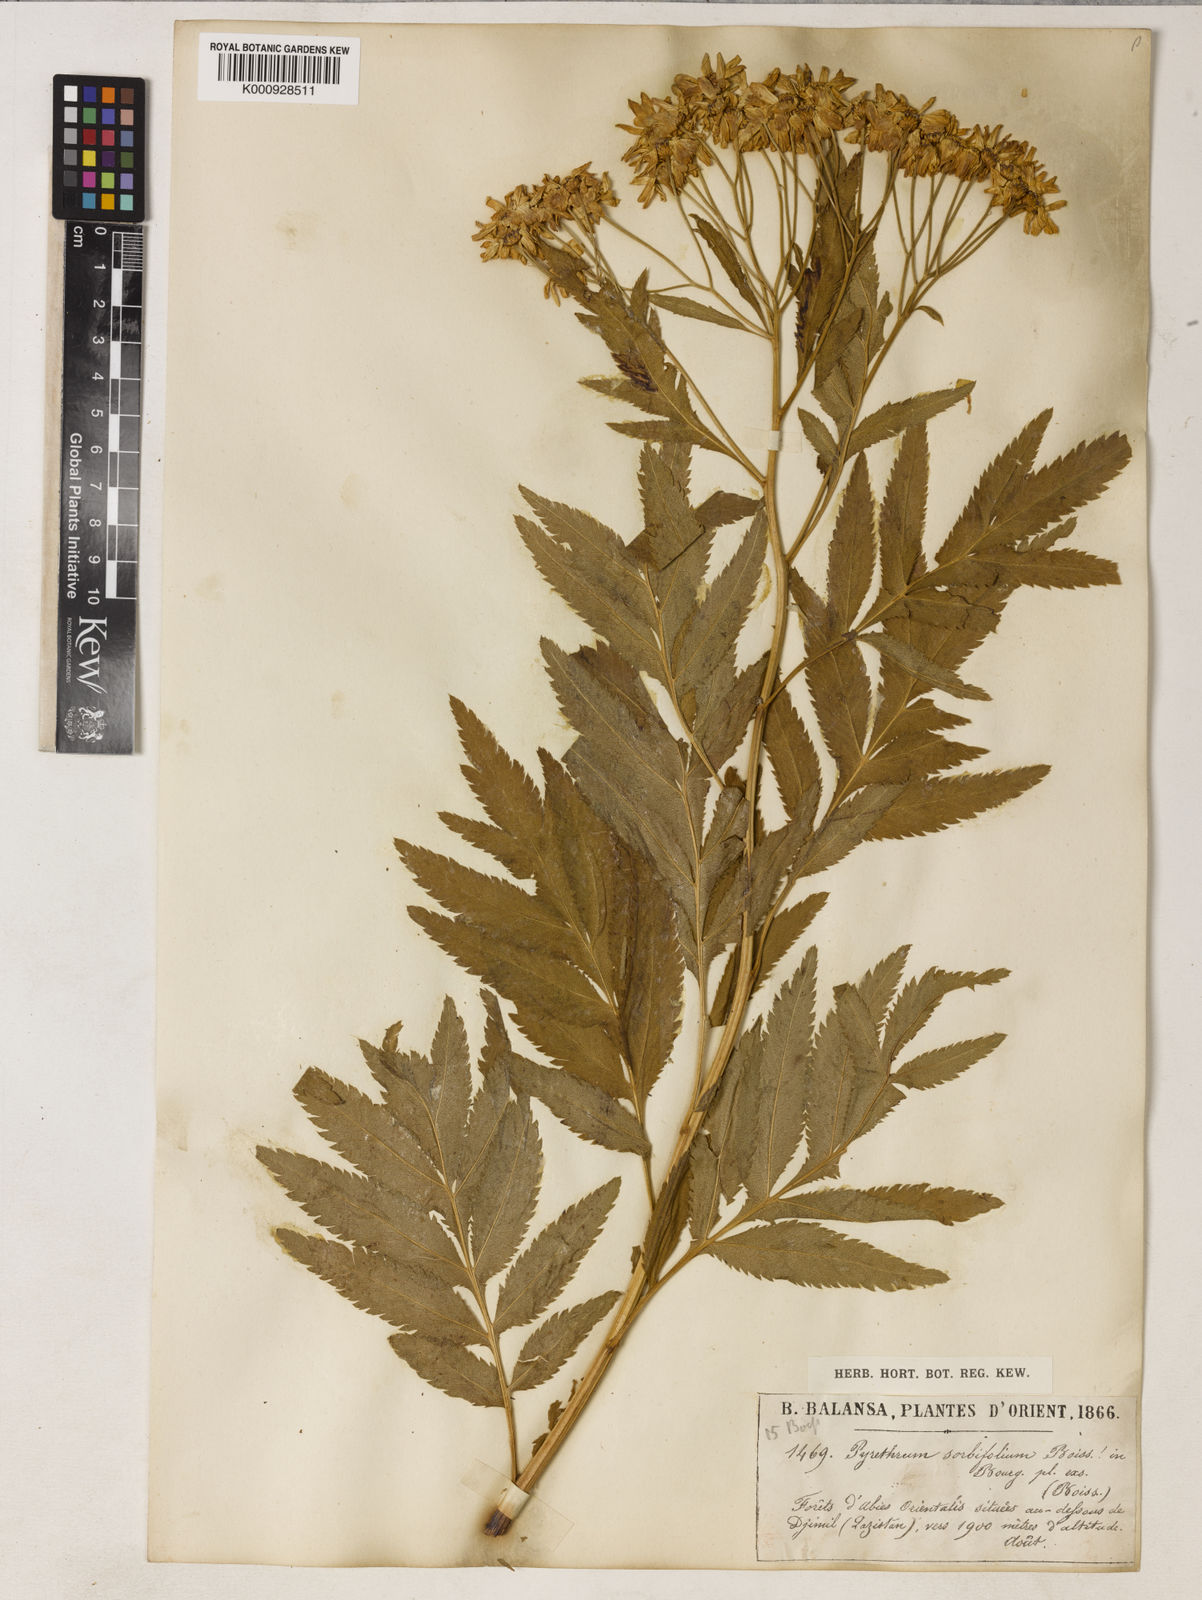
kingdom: Plantae
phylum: Tracheophyta
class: Magnoliopsida
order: Asterales
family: Asteraceae
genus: Tanacetum
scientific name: Tanacetum sorbifolium
